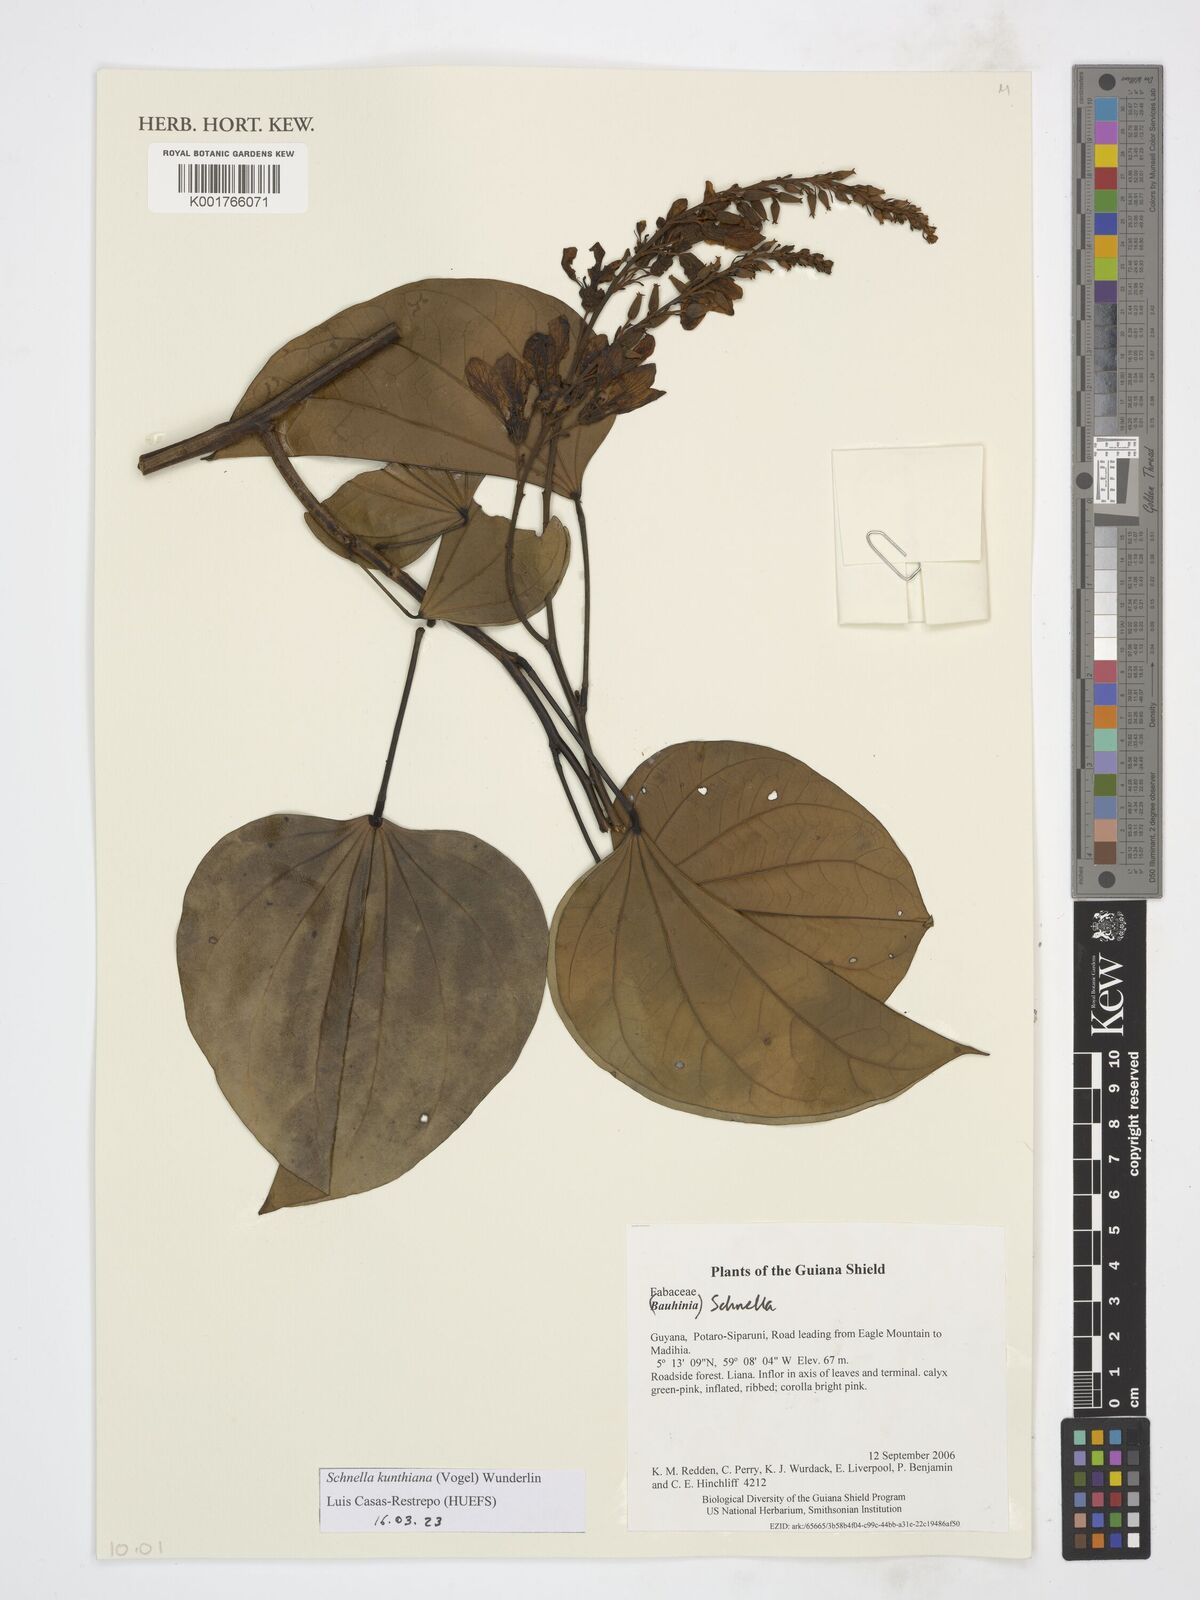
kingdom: Plantae
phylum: Tracheophyta
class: Magnoliopsida
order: Fabales
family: Fabaceae
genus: Schnella
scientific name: Schnella kunthiana
